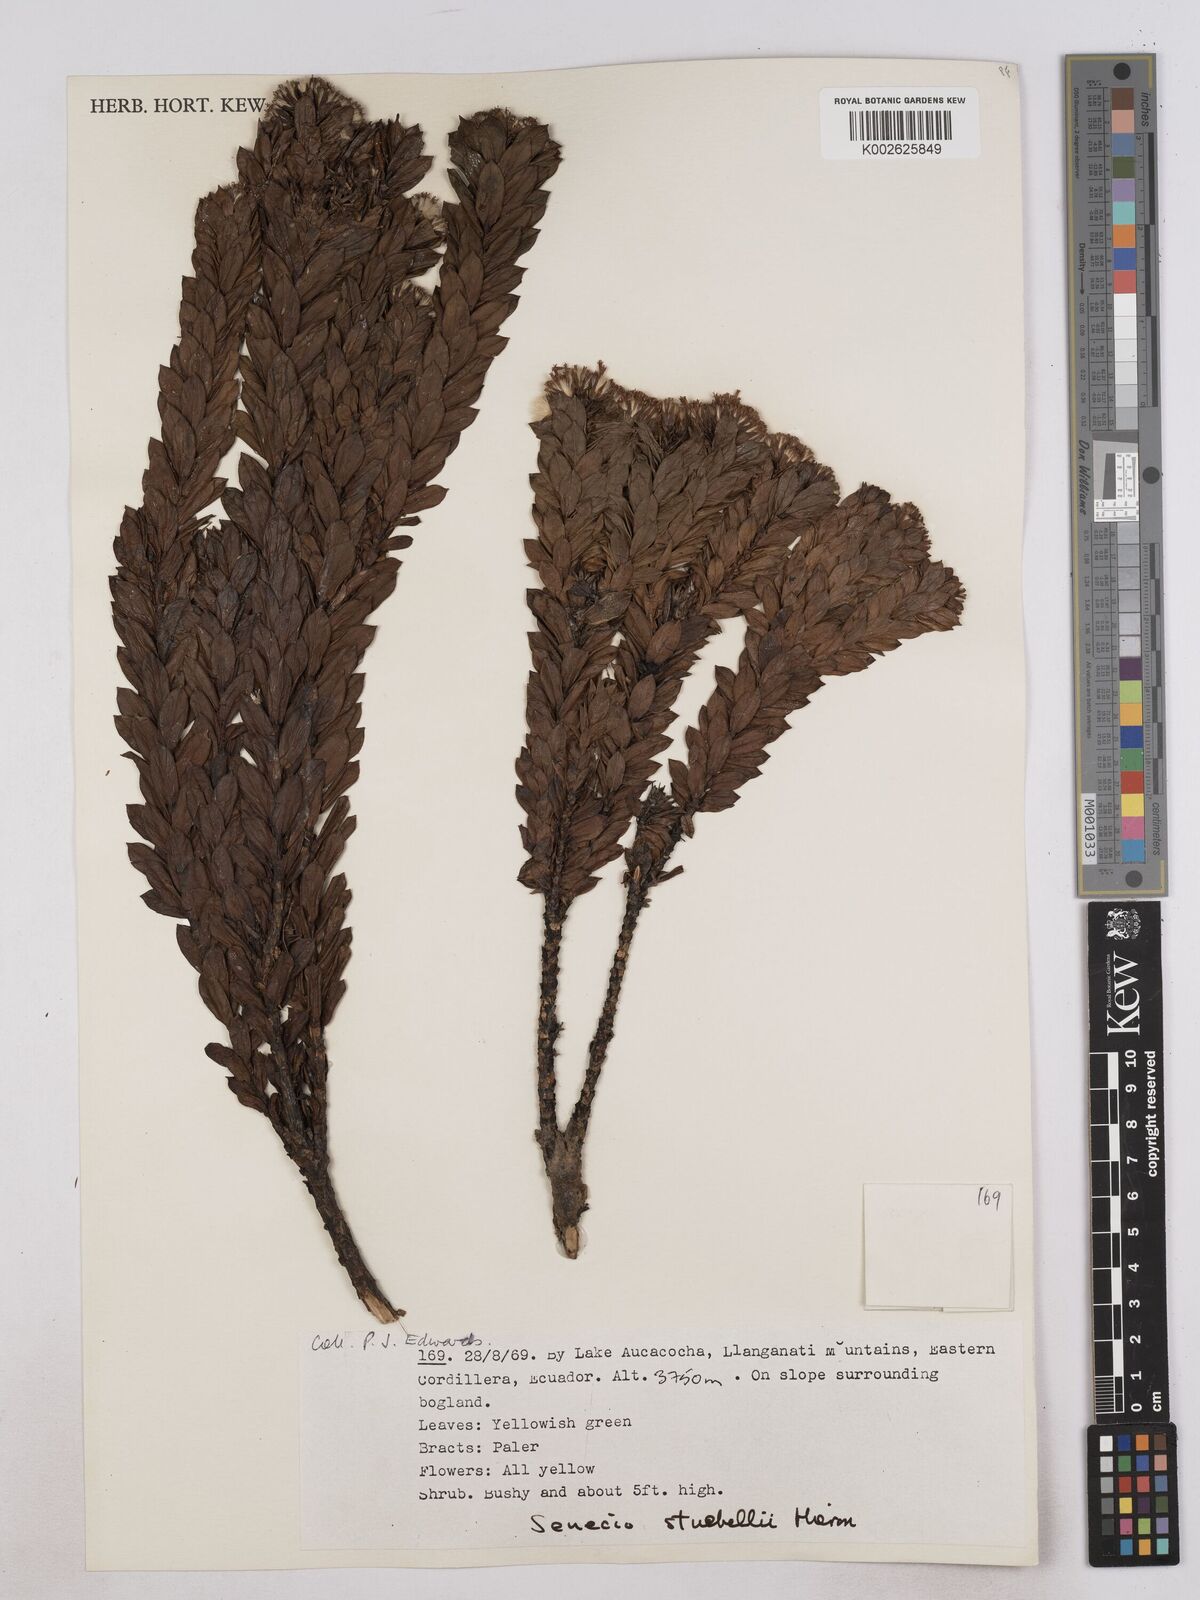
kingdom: Plantae
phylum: Tracheophyta
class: Magnoliopsida
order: Asterales
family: Asteraceae
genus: Monticalia
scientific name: Monticalia stuebelii
